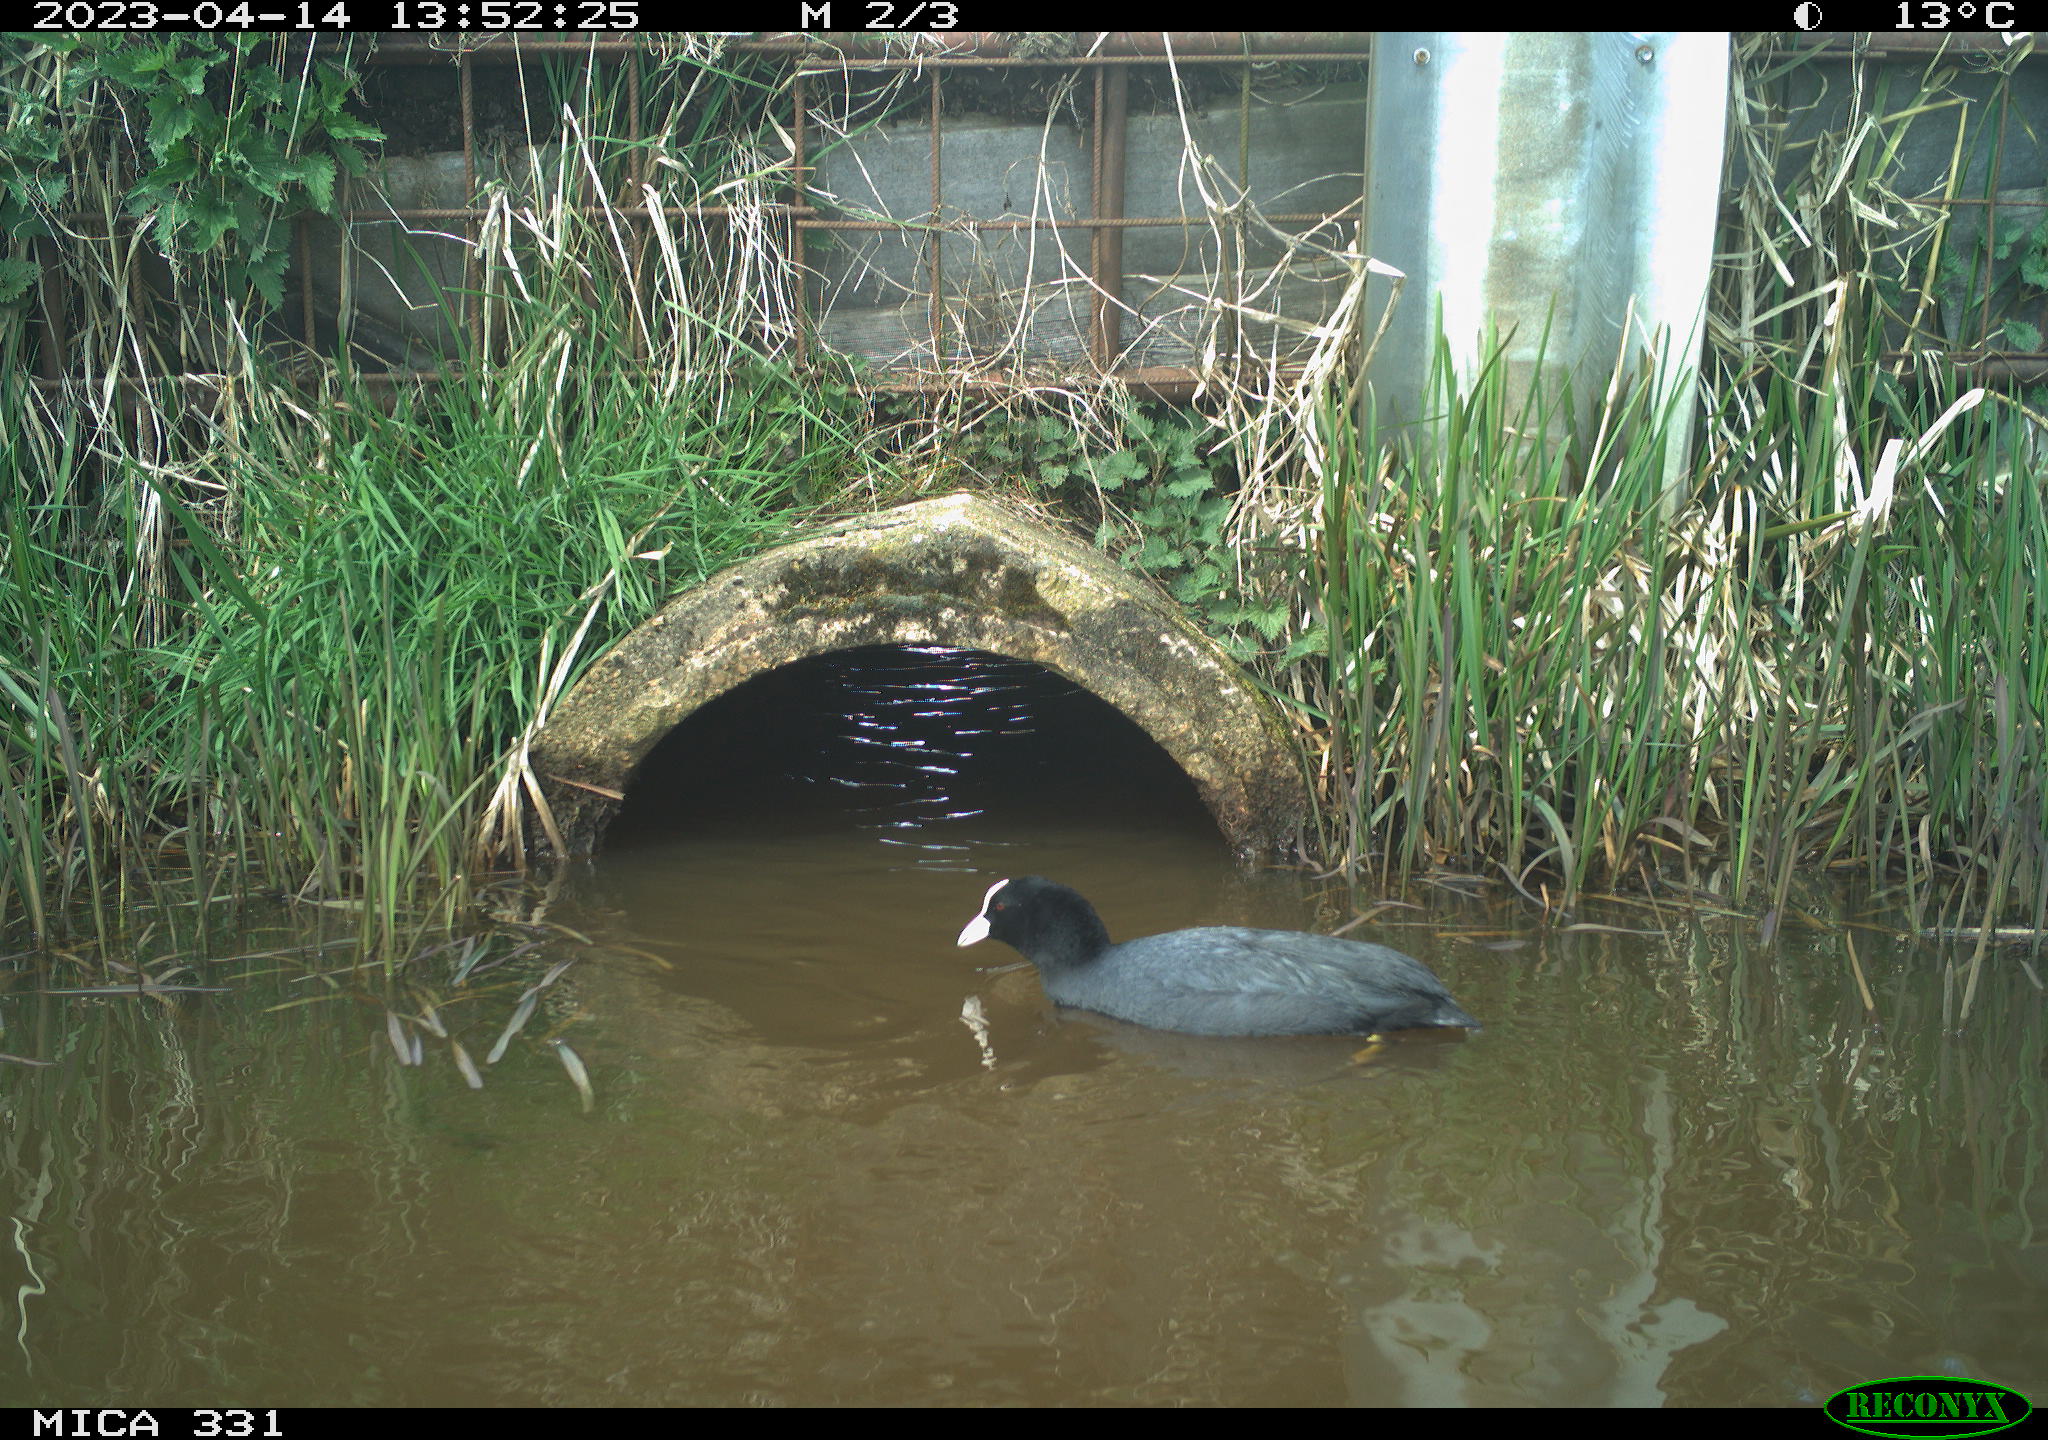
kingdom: Animalia
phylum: Chordata
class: Aves
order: Gruiformes
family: Rallidae
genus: Fulica
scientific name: Fulica atra
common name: Eurasian coot
